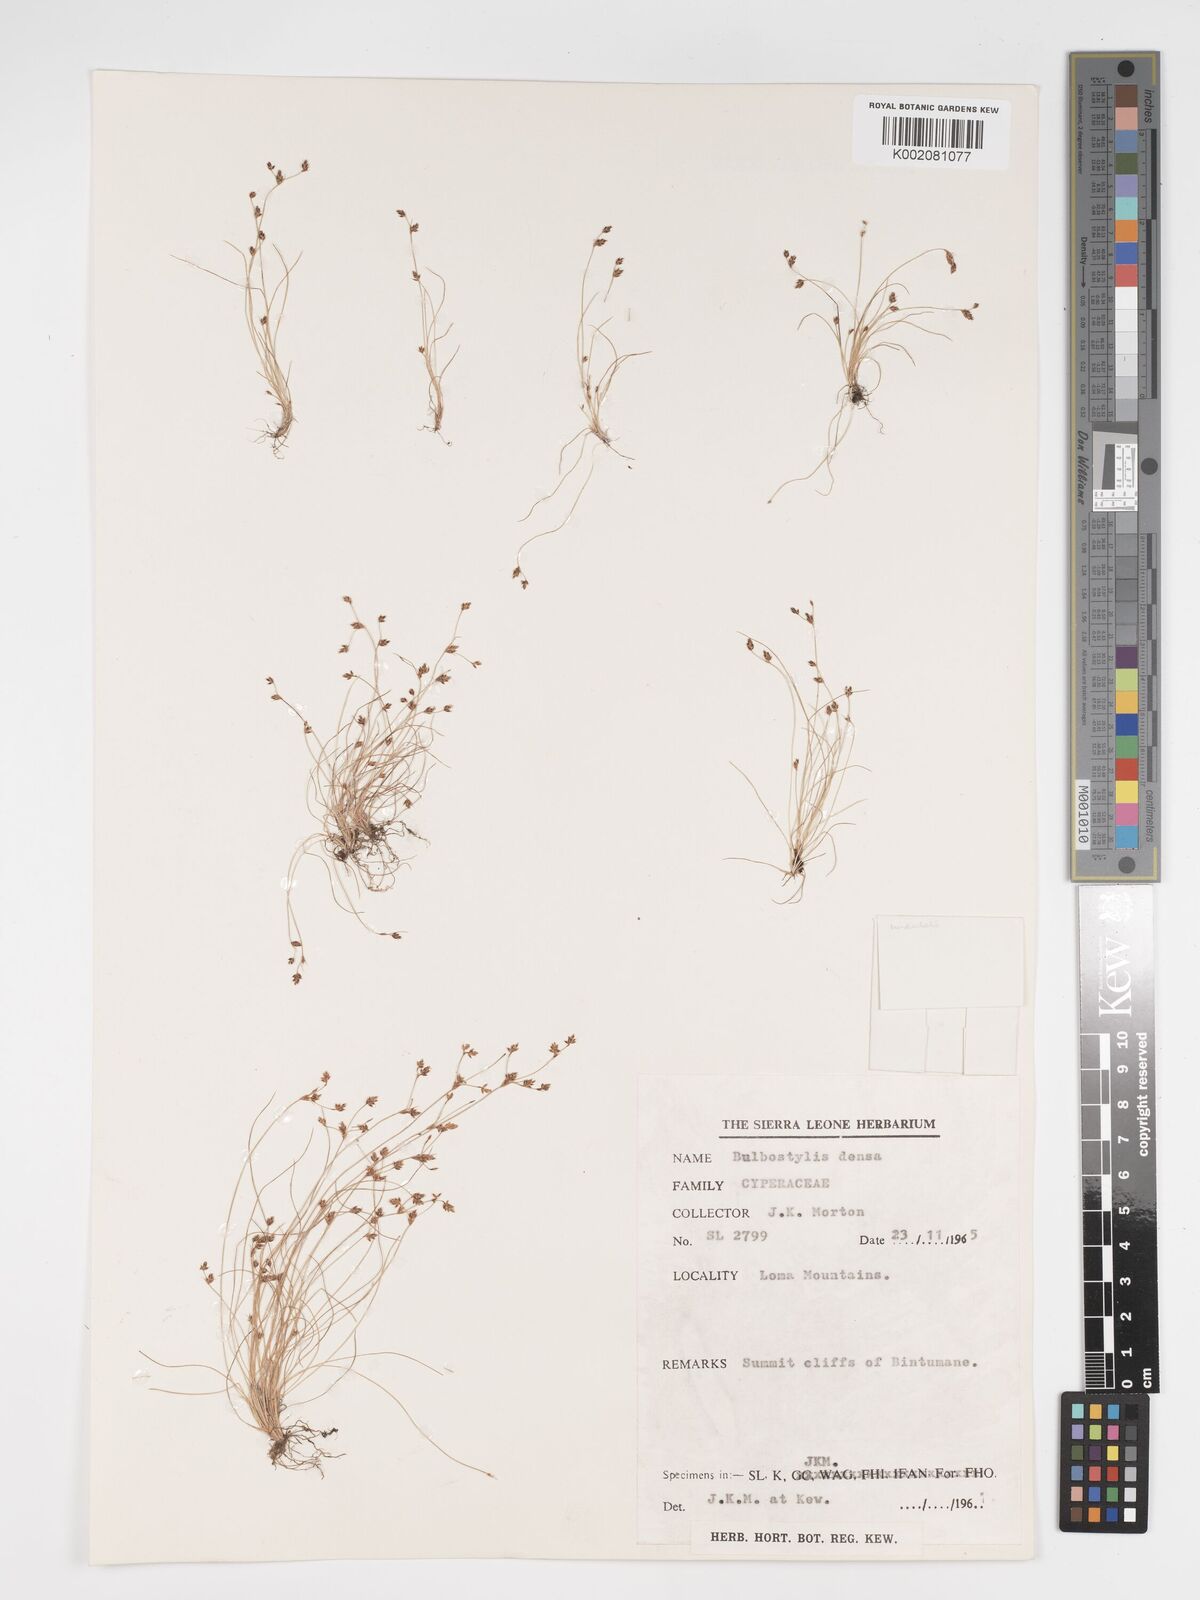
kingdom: Plantae
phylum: Tracheophyta
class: Liliopsida
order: Poales
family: Cyperaceae
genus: Bulbostylis
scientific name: Bulbostylis
